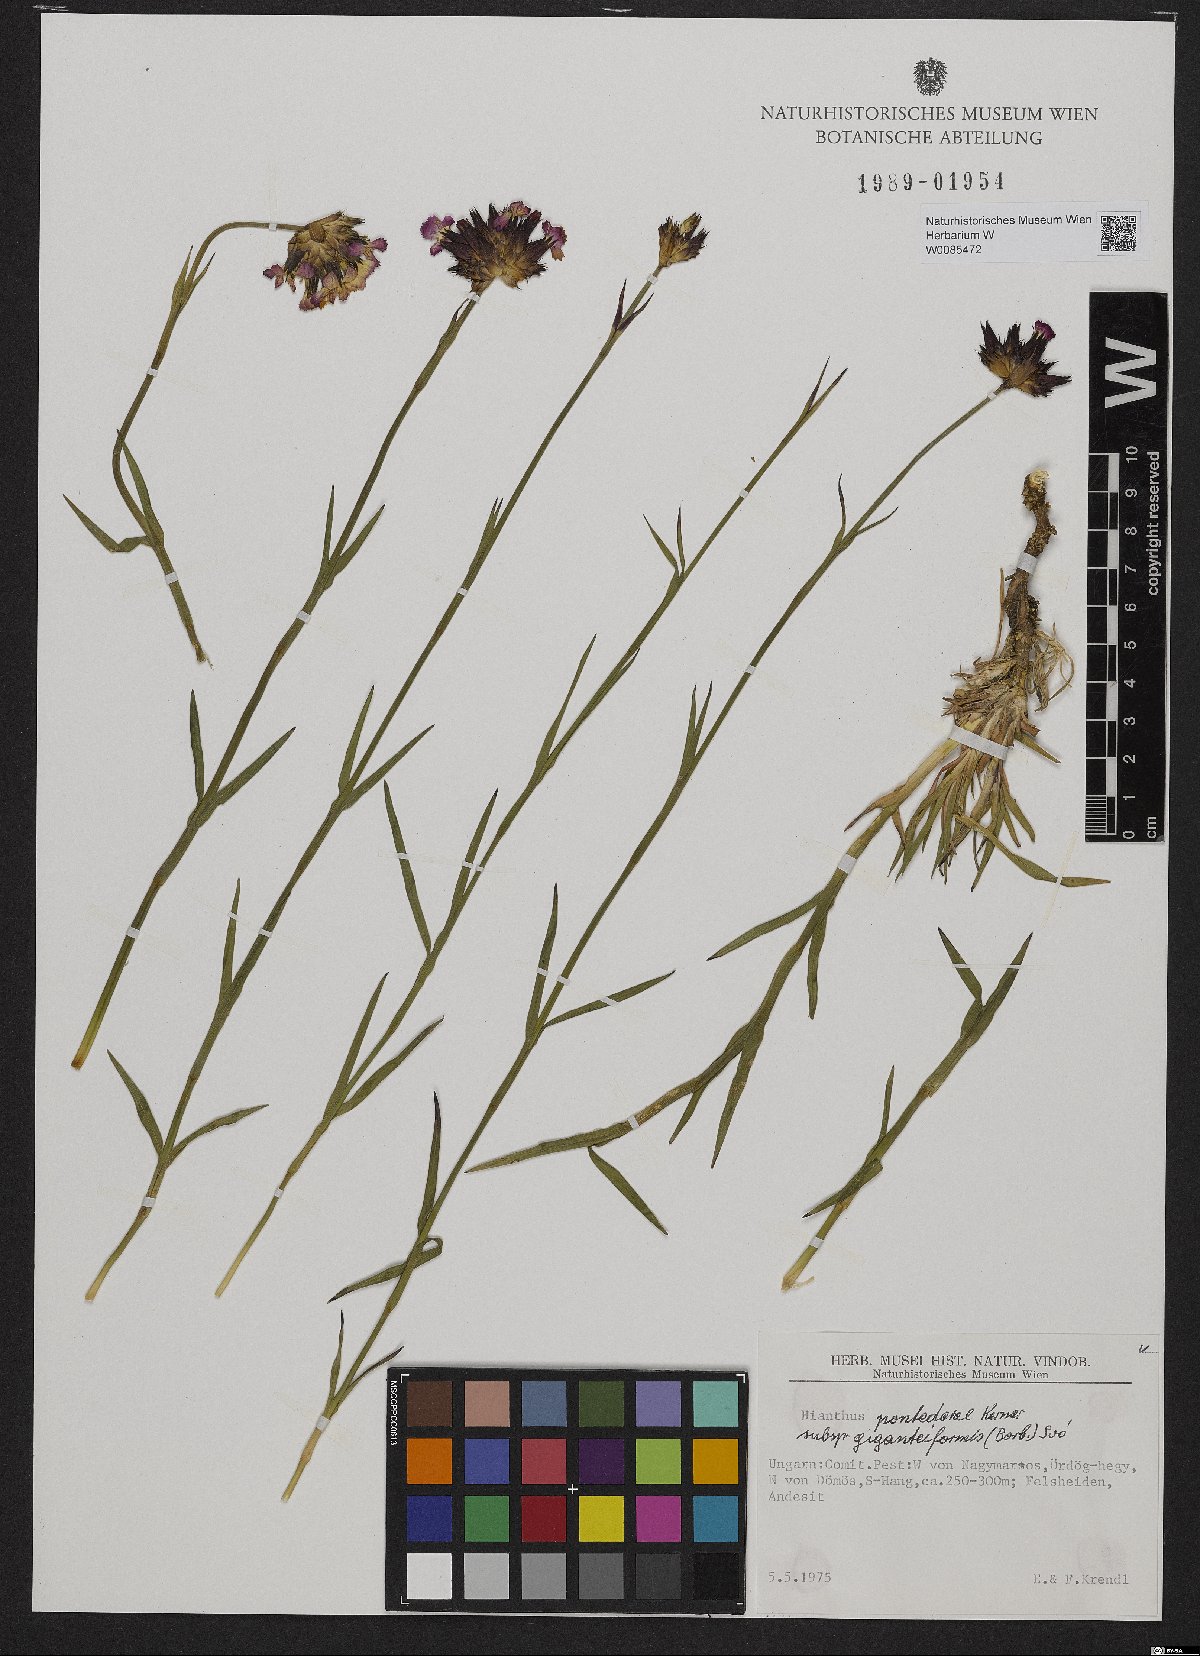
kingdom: Plantae
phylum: Tracheophyta
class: Magnoliopsida
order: Caryophyllales
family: Caryophyllaceae
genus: Dianthus
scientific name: Dianthus giganteiformis
